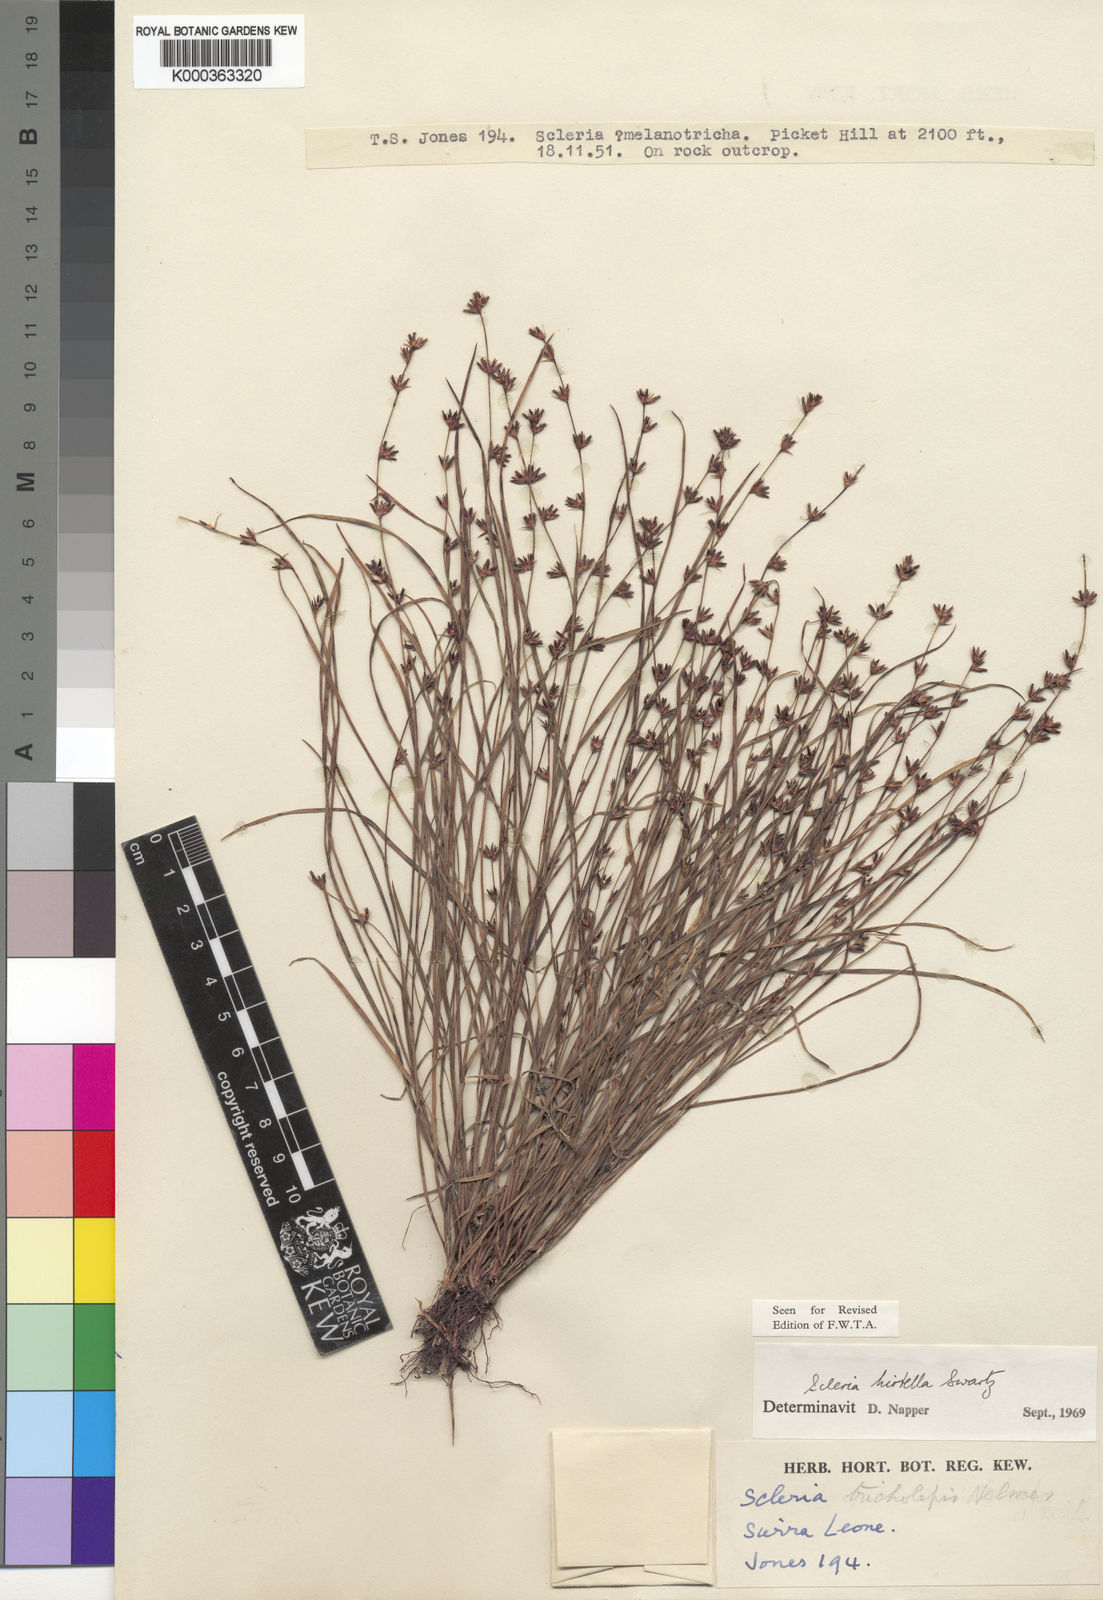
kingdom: Plantae
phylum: Tracheophyta
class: Liliopsida
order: Poales
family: Cyperaceae
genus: Scleria
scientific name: Scleria tricholepis
